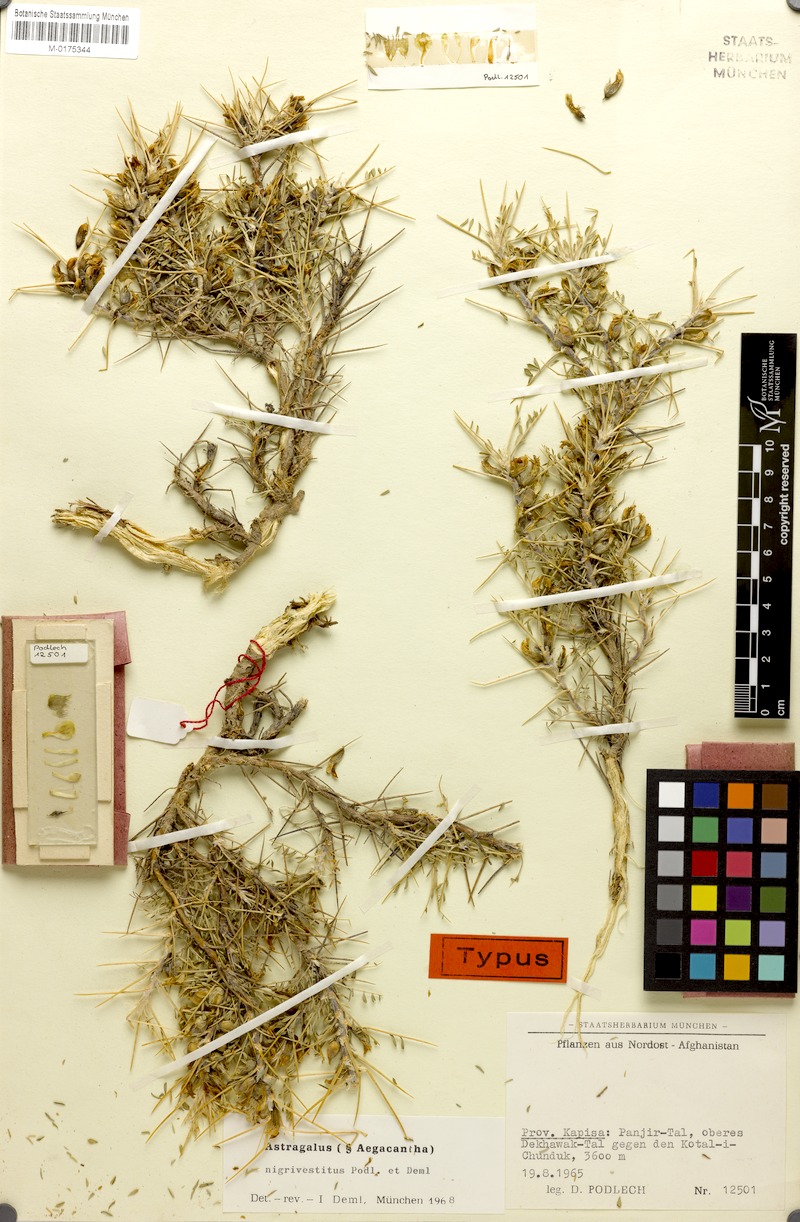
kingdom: Plantae
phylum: Tracheophyta
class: Magnoliopsida
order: Fabales
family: Fabaceae
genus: Astragalus
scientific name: Astragalus nigrivestitus
